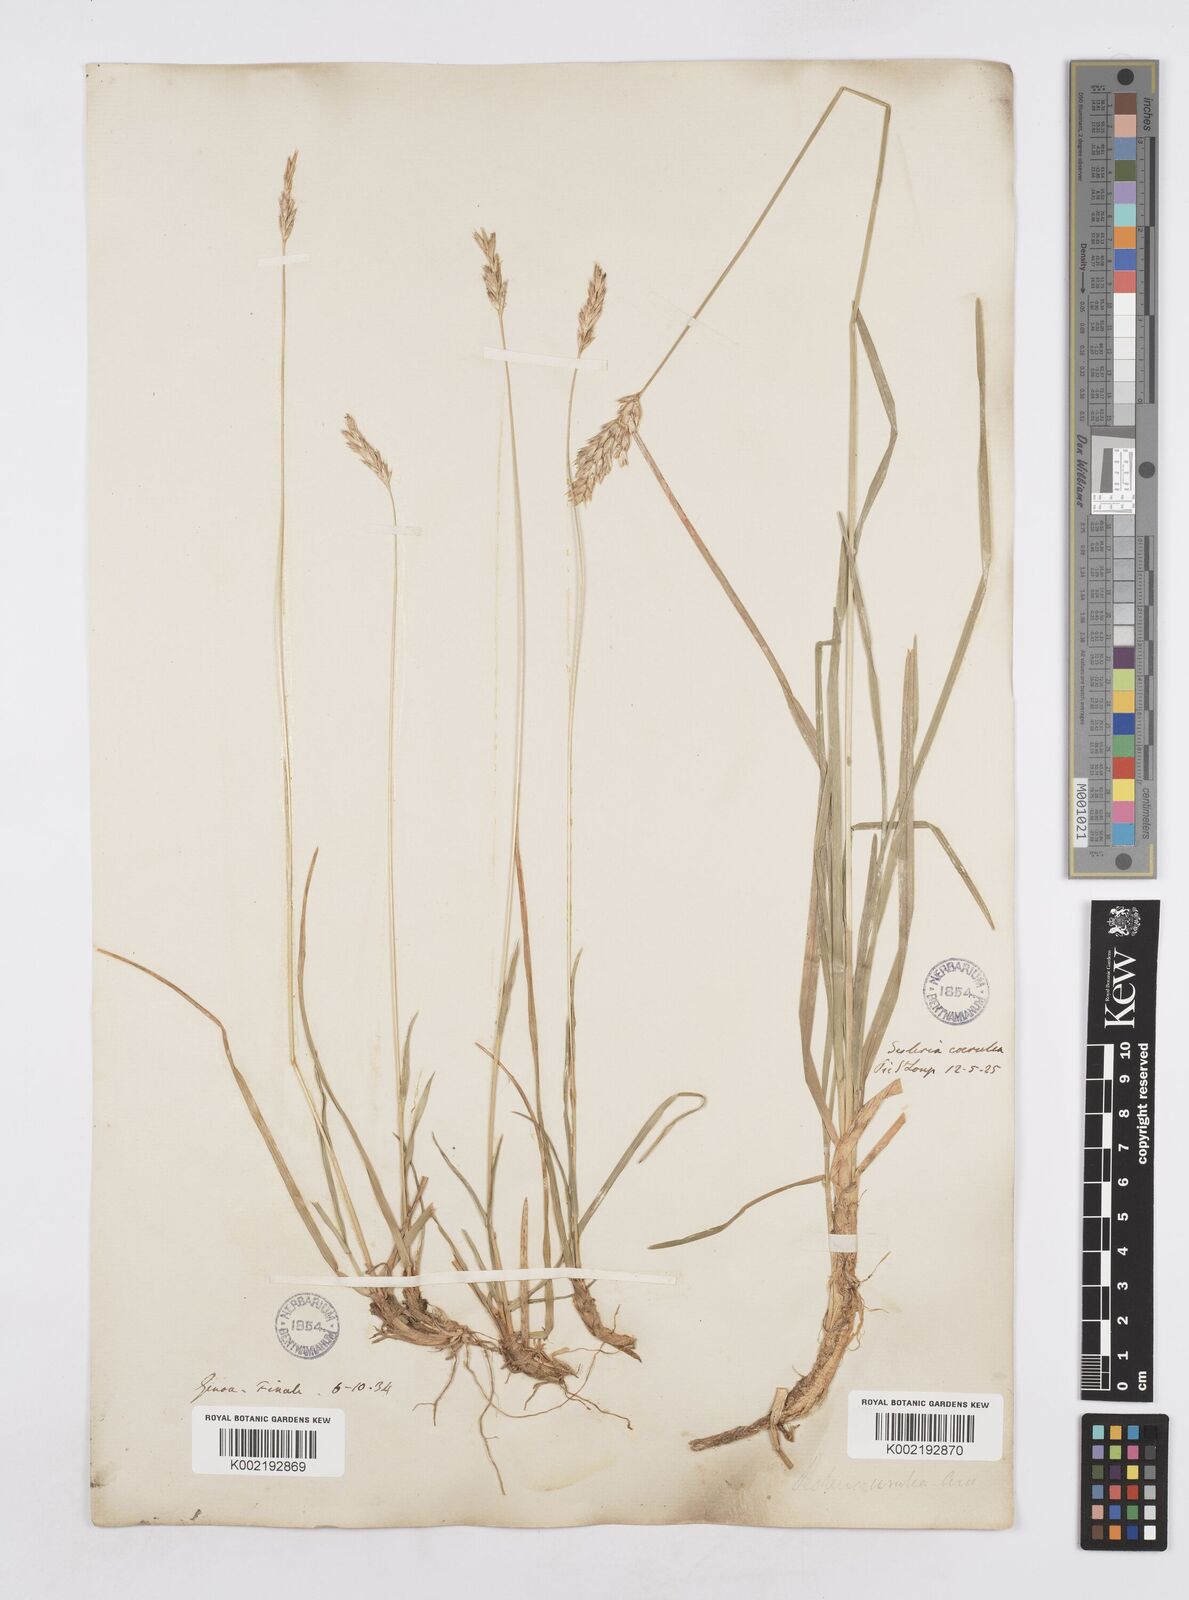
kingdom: Plantae
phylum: Tracheophyta
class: Liliopsida
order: Poales
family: Poaceae
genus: Sesleria
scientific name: Sesleria albicans
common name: Blue moor-grass
